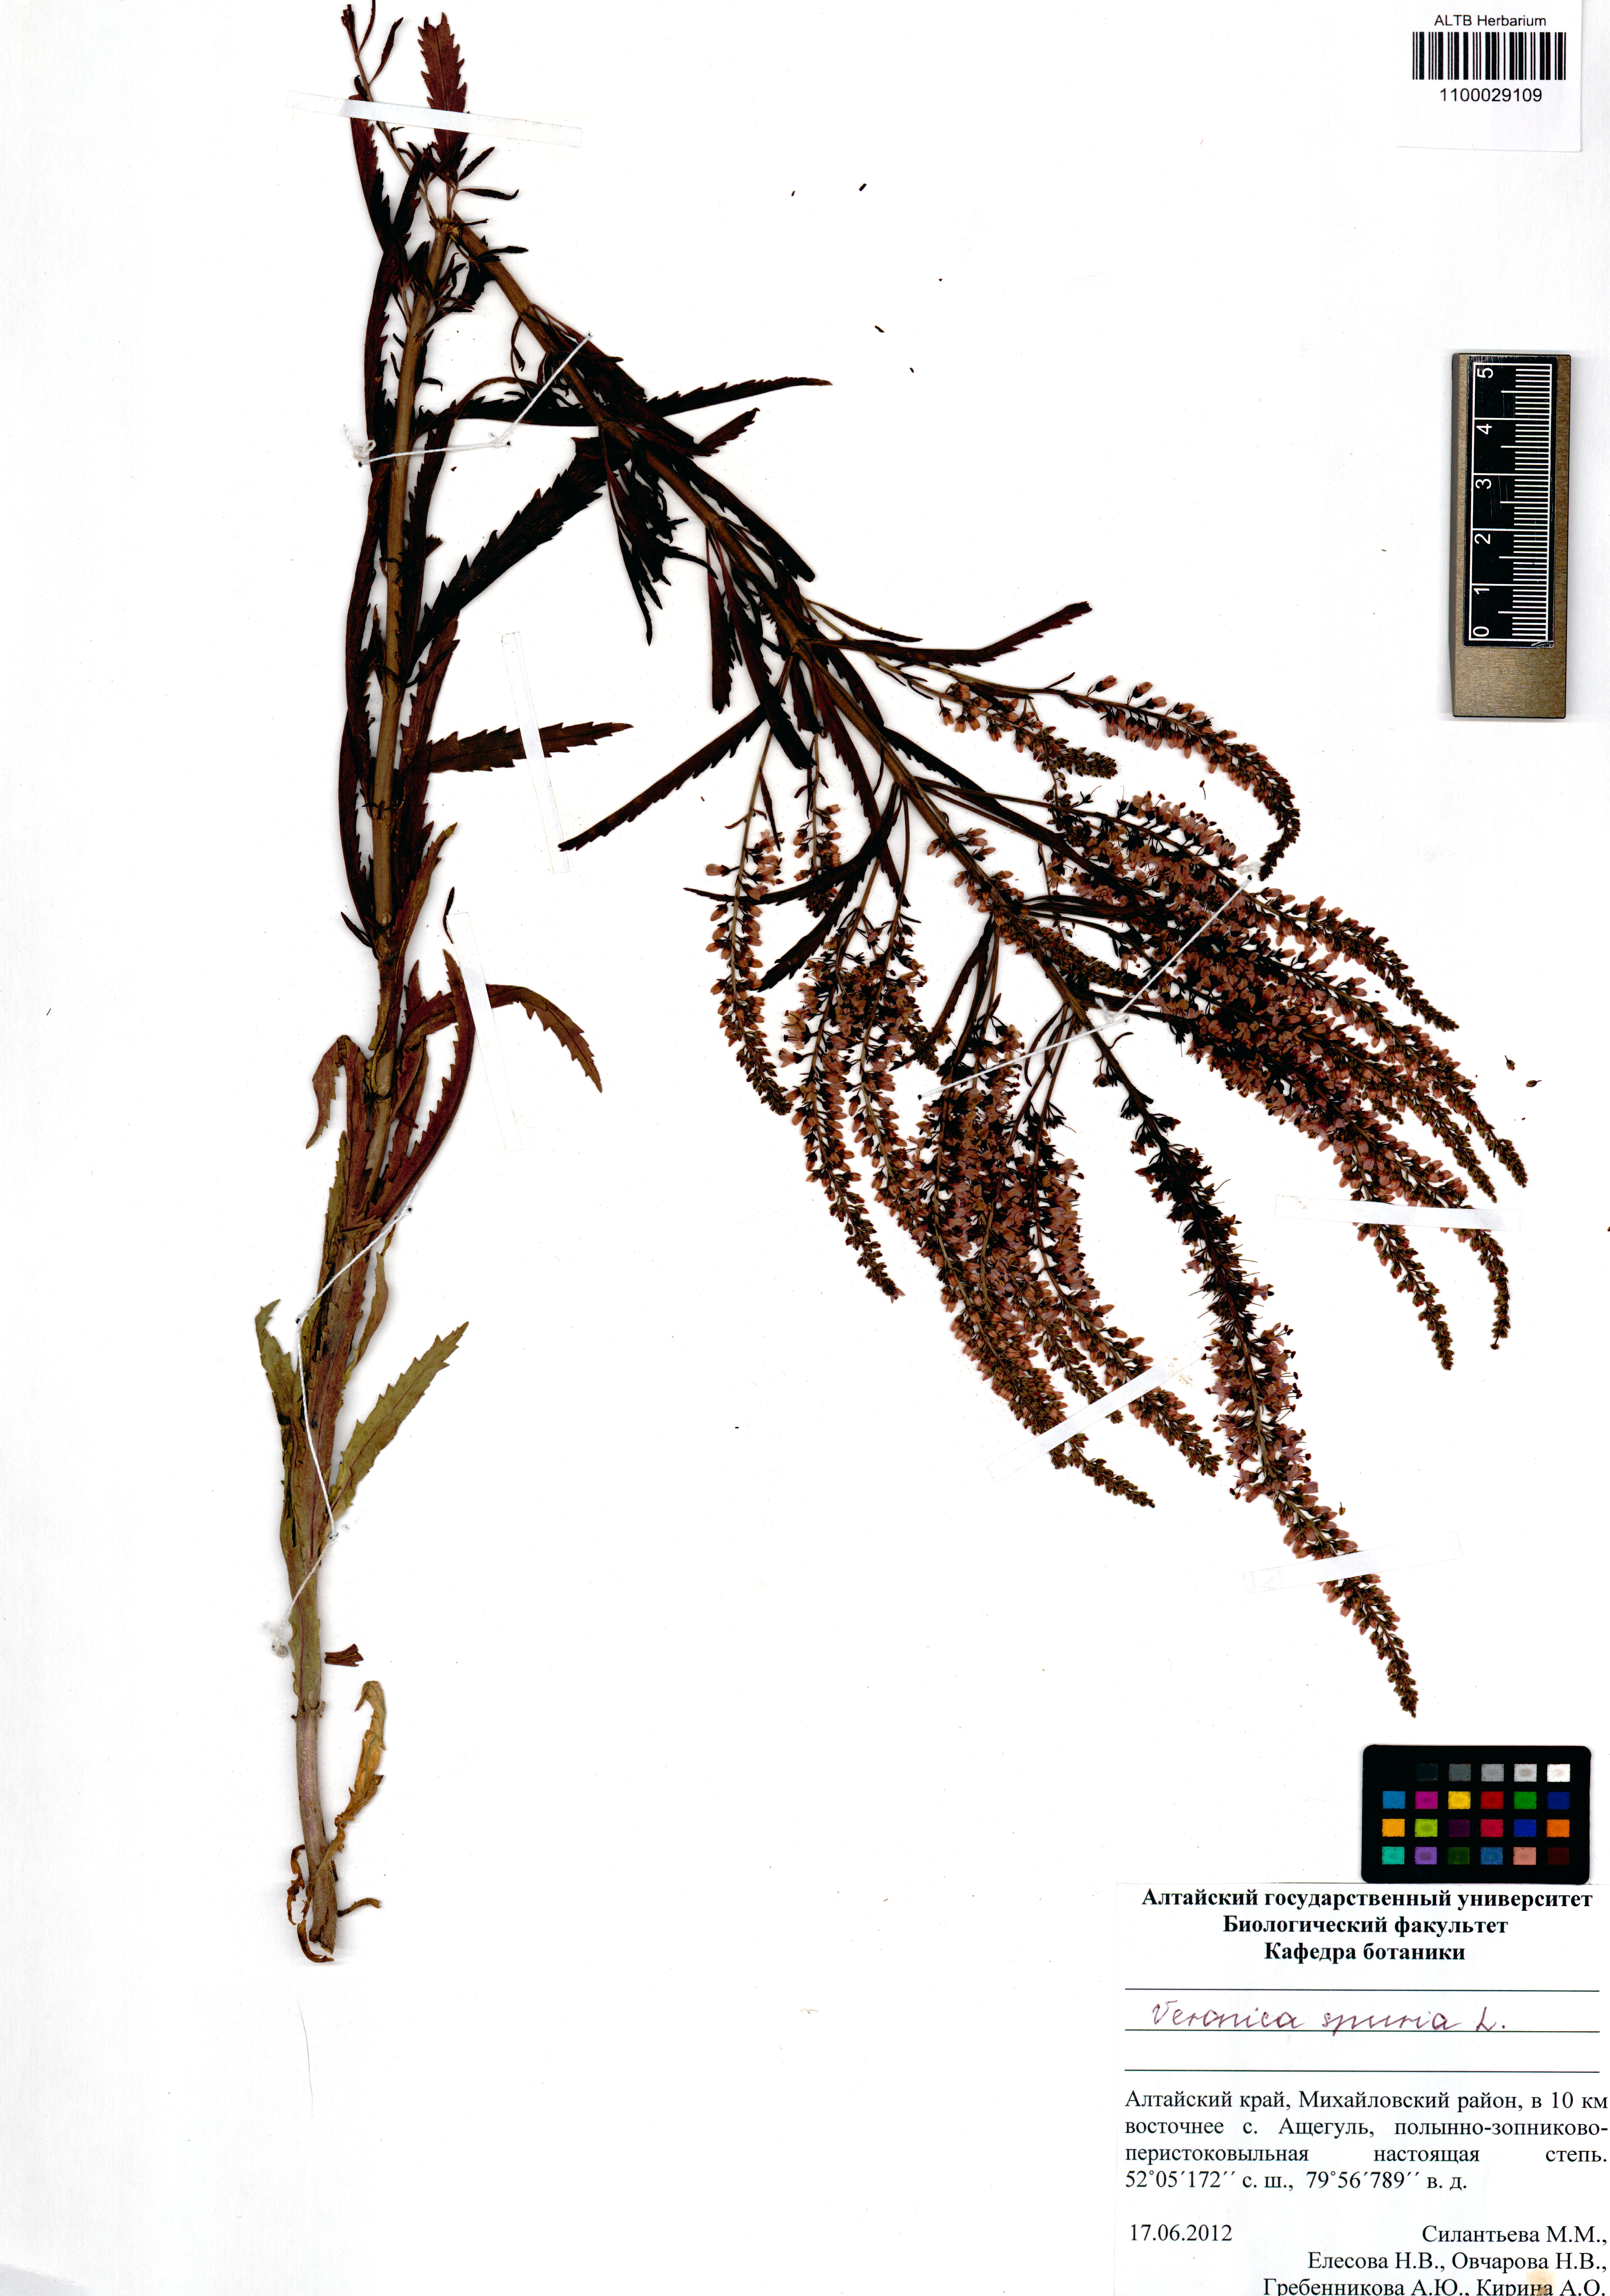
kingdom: Plantae
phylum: Tracheophyta
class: Magnoliopsida
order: Lamiales
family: Plantaginaceae
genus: Veronica
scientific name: Veronica spuria
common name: Bastard speedwell
